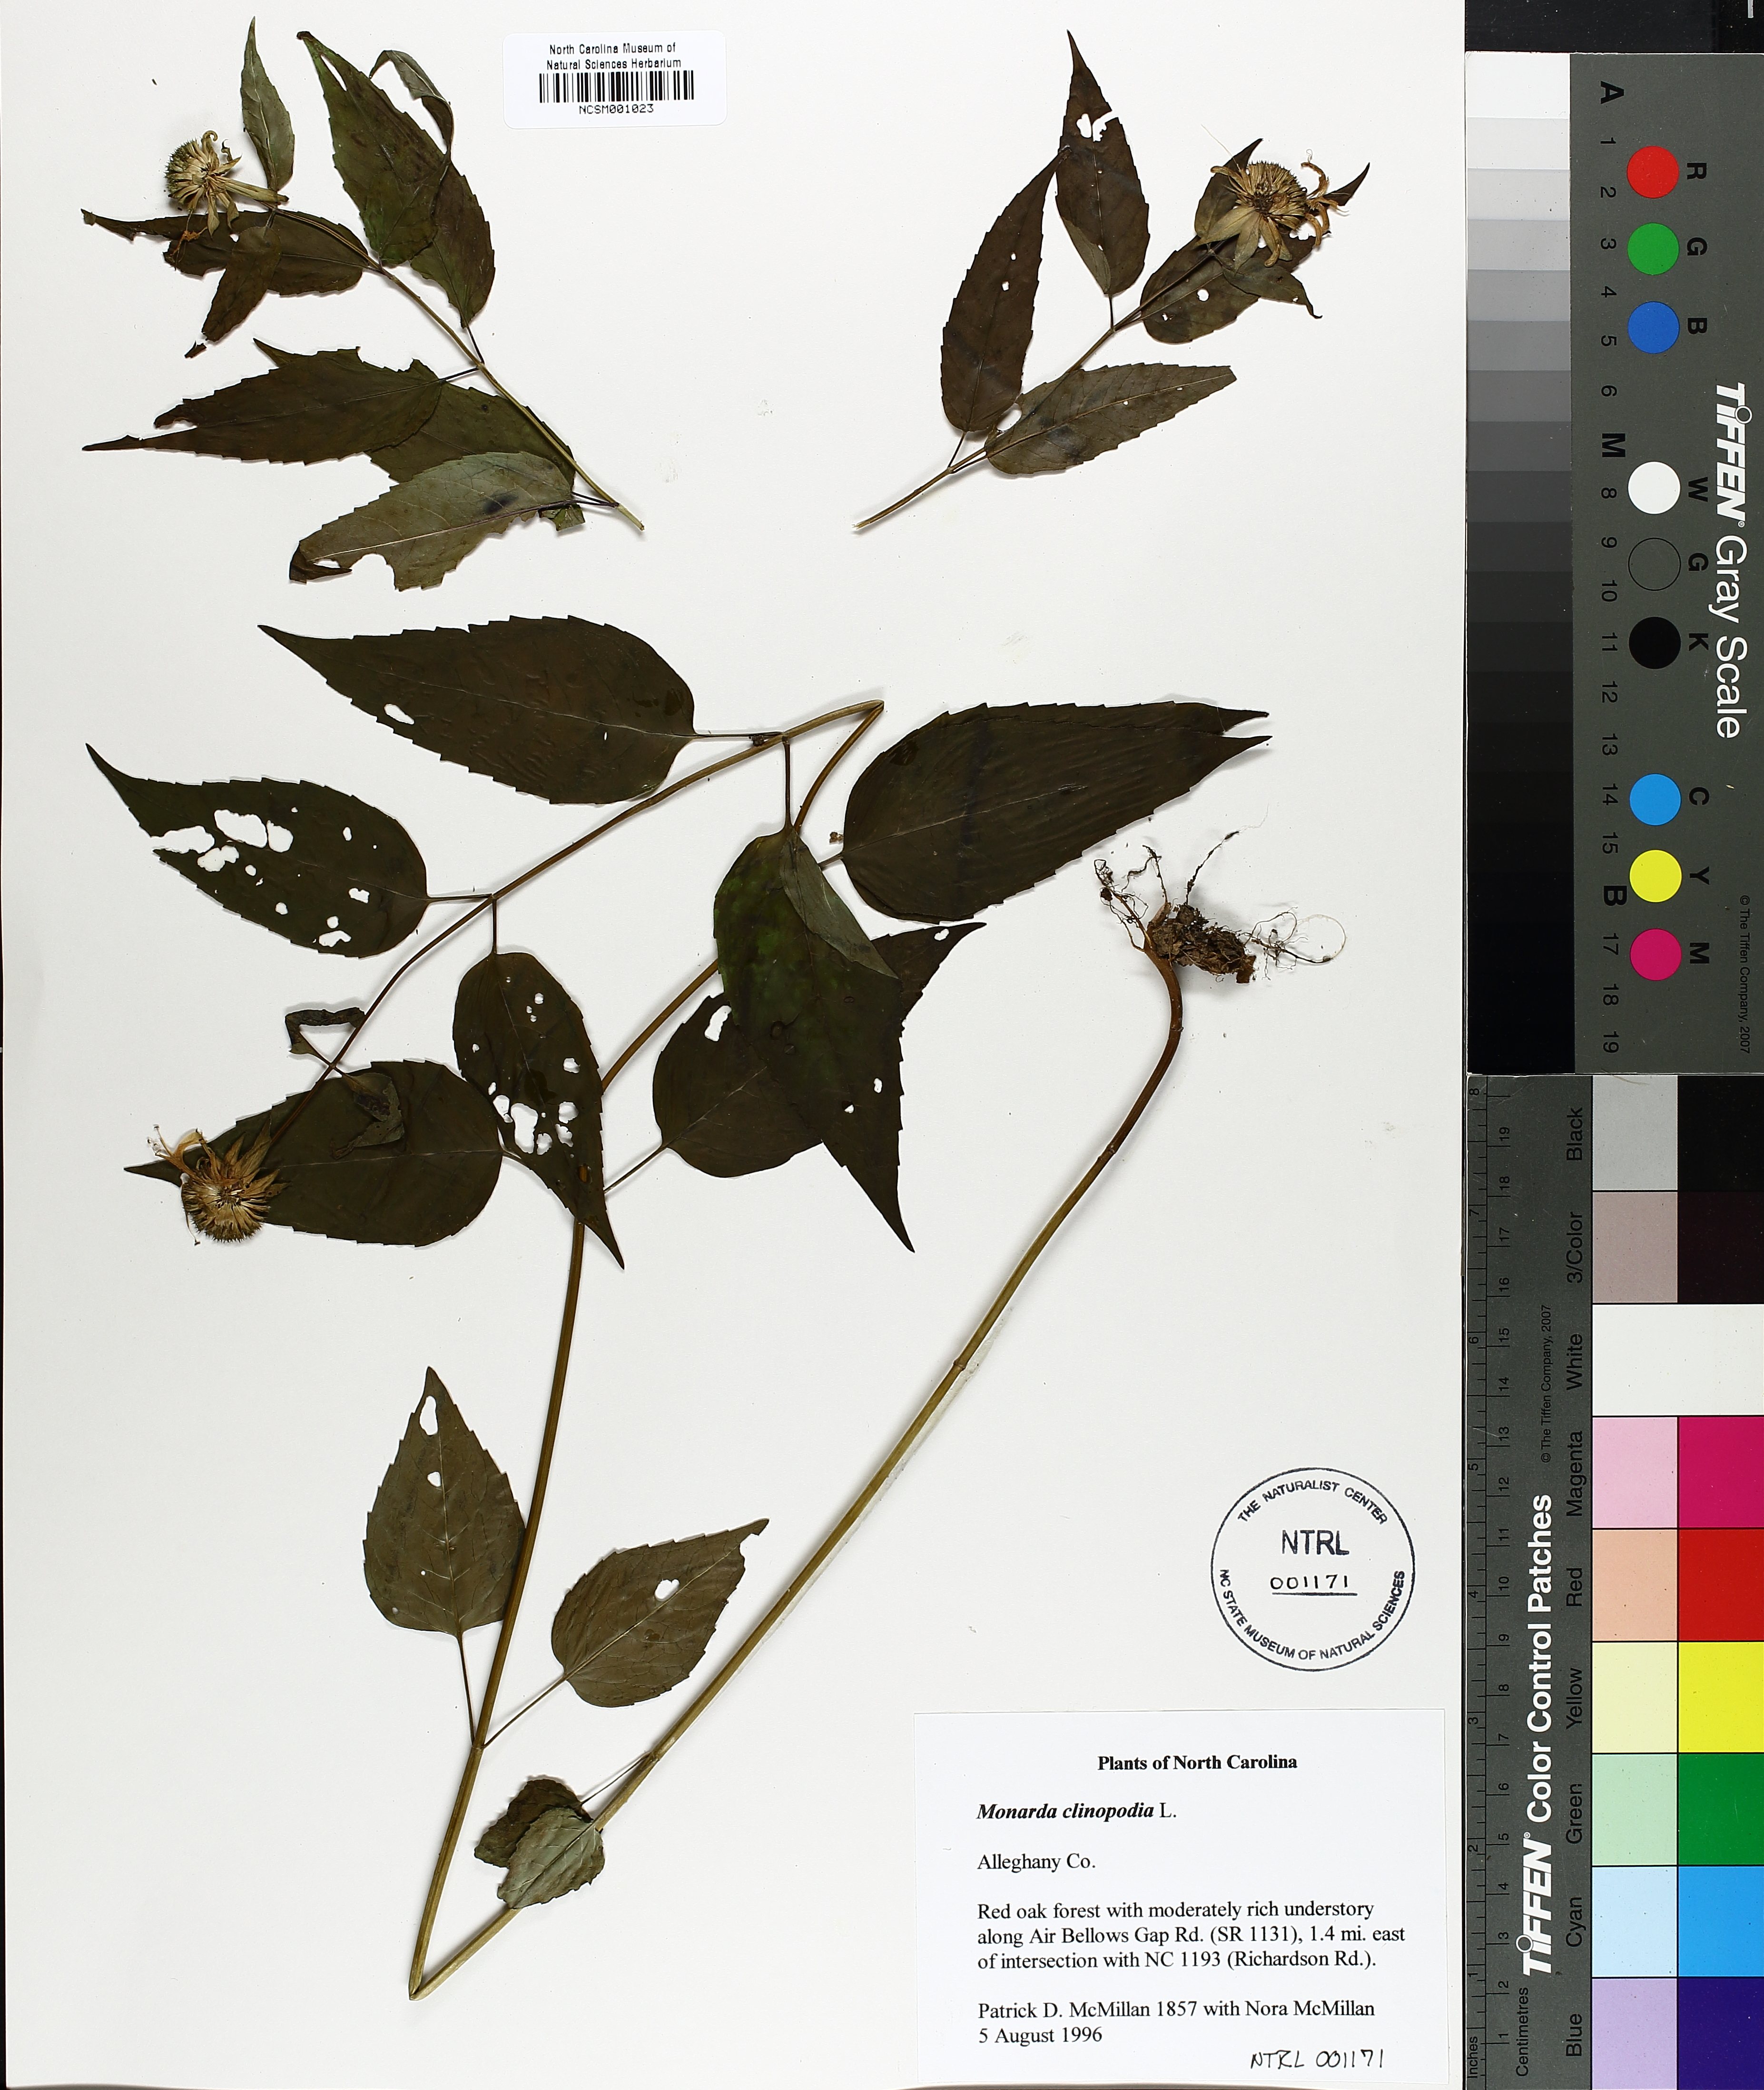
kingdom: Plantae
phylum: Tracheophyta
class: Magnoliopsida
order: Lamiales
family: Lamiaceae
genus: Monarda
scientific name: Monarda clinopodia
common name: Basil beebalm
